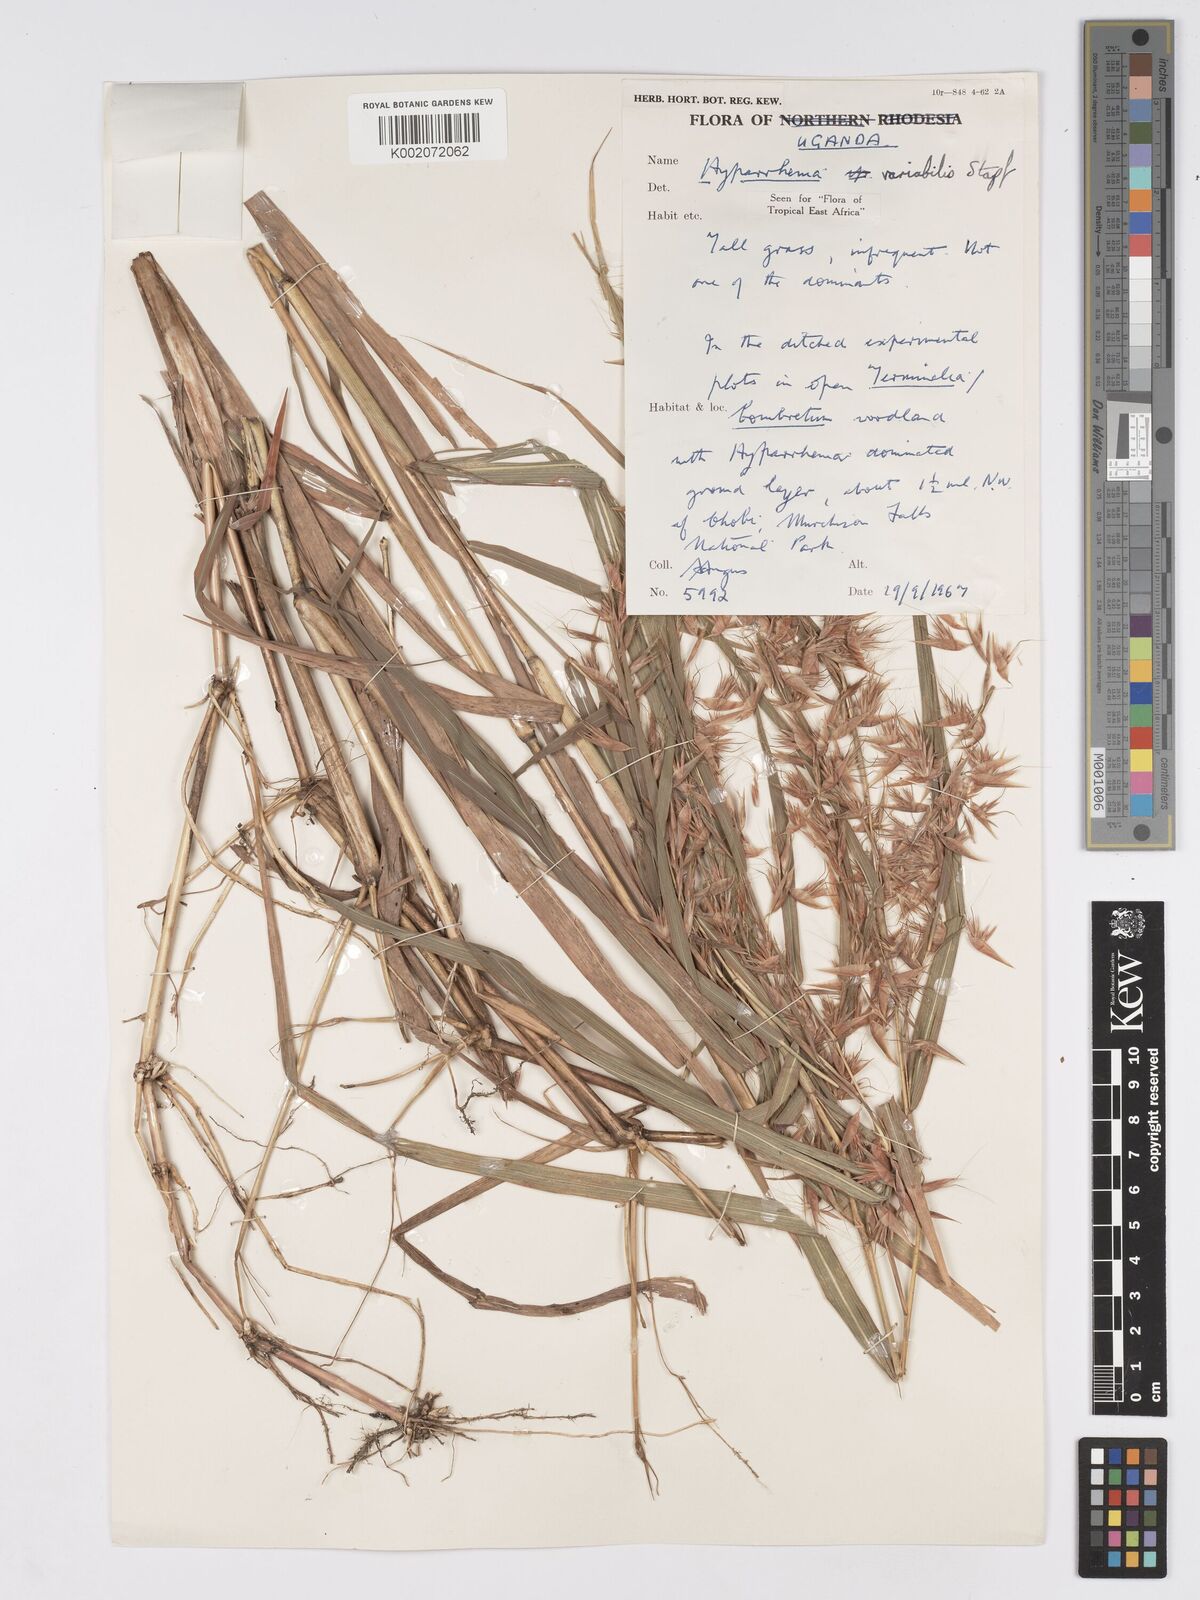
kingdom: Plantae
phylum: Tracheophyta
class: Liliopsida
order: Poales
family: Poaceae
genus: Hyparrhenia
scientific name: Hyparrhenia variabilis
